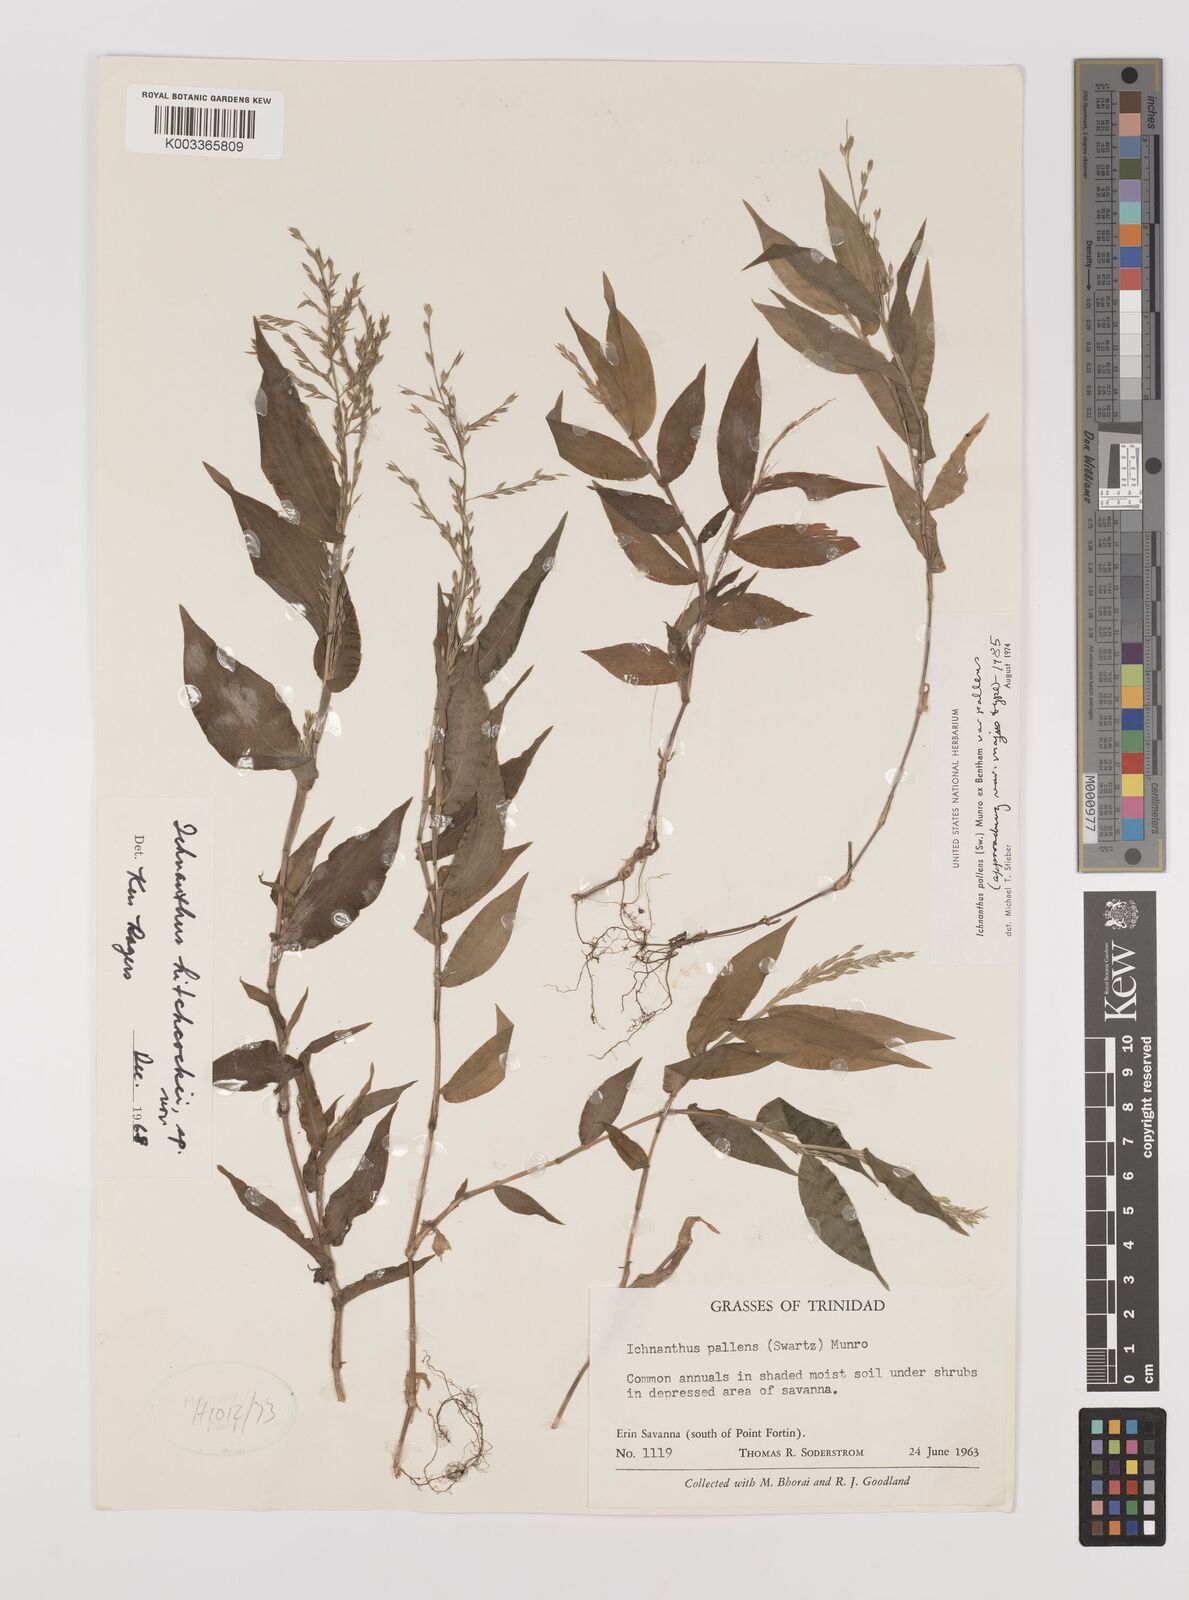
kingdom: Plantae
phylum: Tracheophyta
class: Liliopsida
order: Poales
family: Poaceae
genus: Ichnanthus
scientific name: Ichnanthus pallens
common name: Water grass
